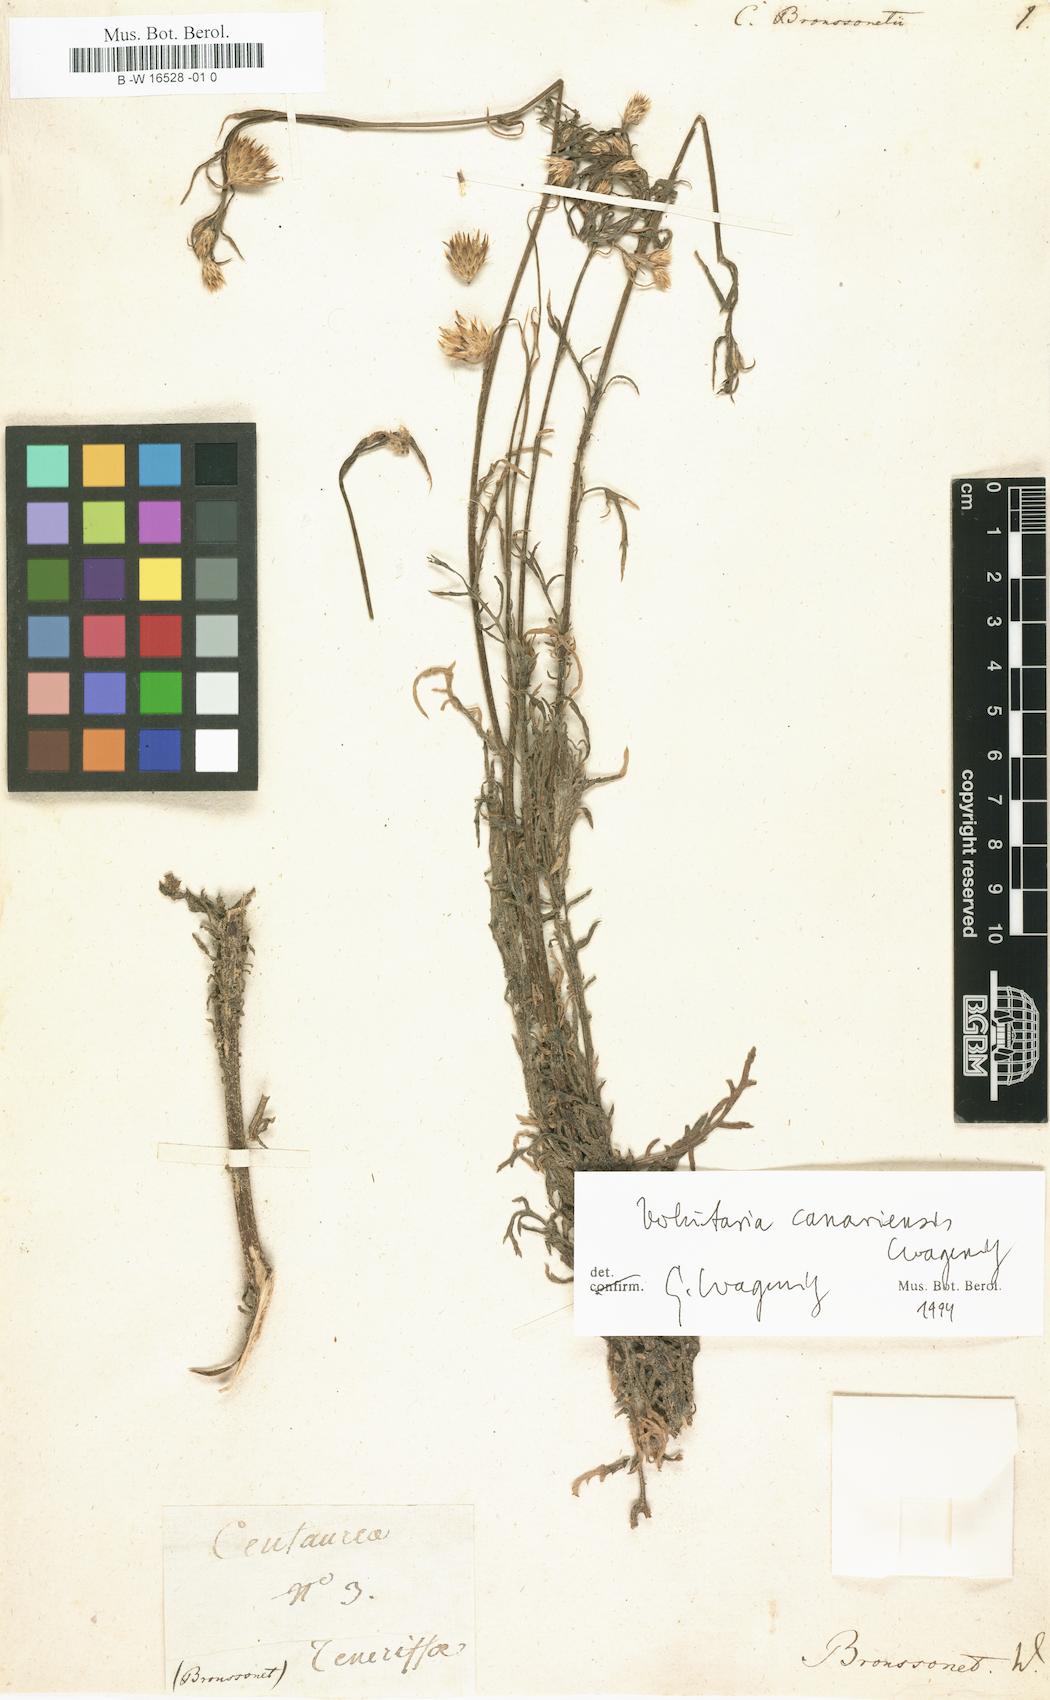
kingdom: Plantae
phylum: Tracheophyta
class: Magnoliopsida
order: Asterales
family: Asteraceae
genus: Centaurea
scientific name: Centaurea
